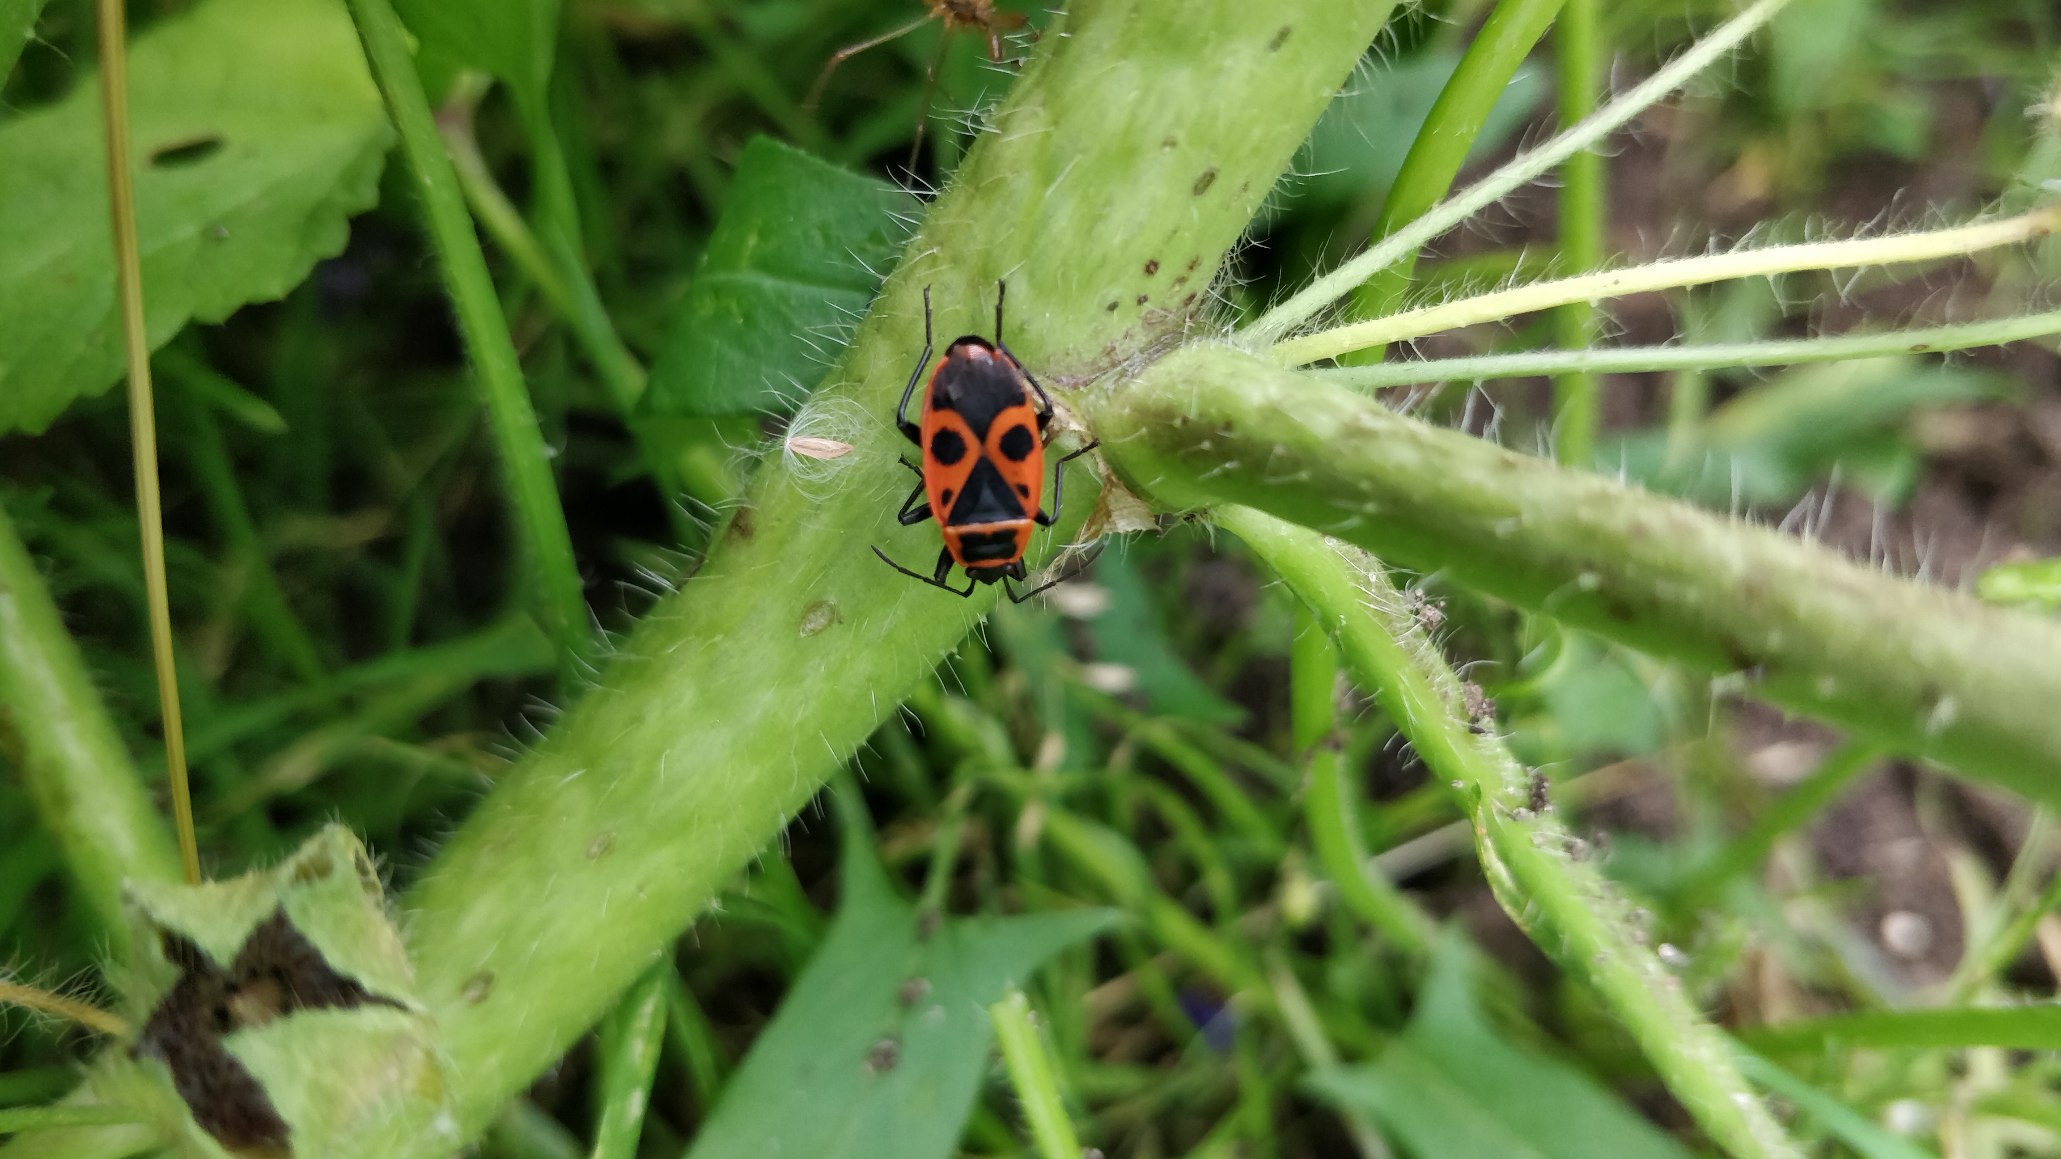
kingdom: Animalia
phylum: Arthropoda
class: Insecta
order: Hemiptera
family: Pyrrhocoridae
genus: Pyrrhocoris
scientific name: Pyrrhocoris apterus
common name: Ildtæge
